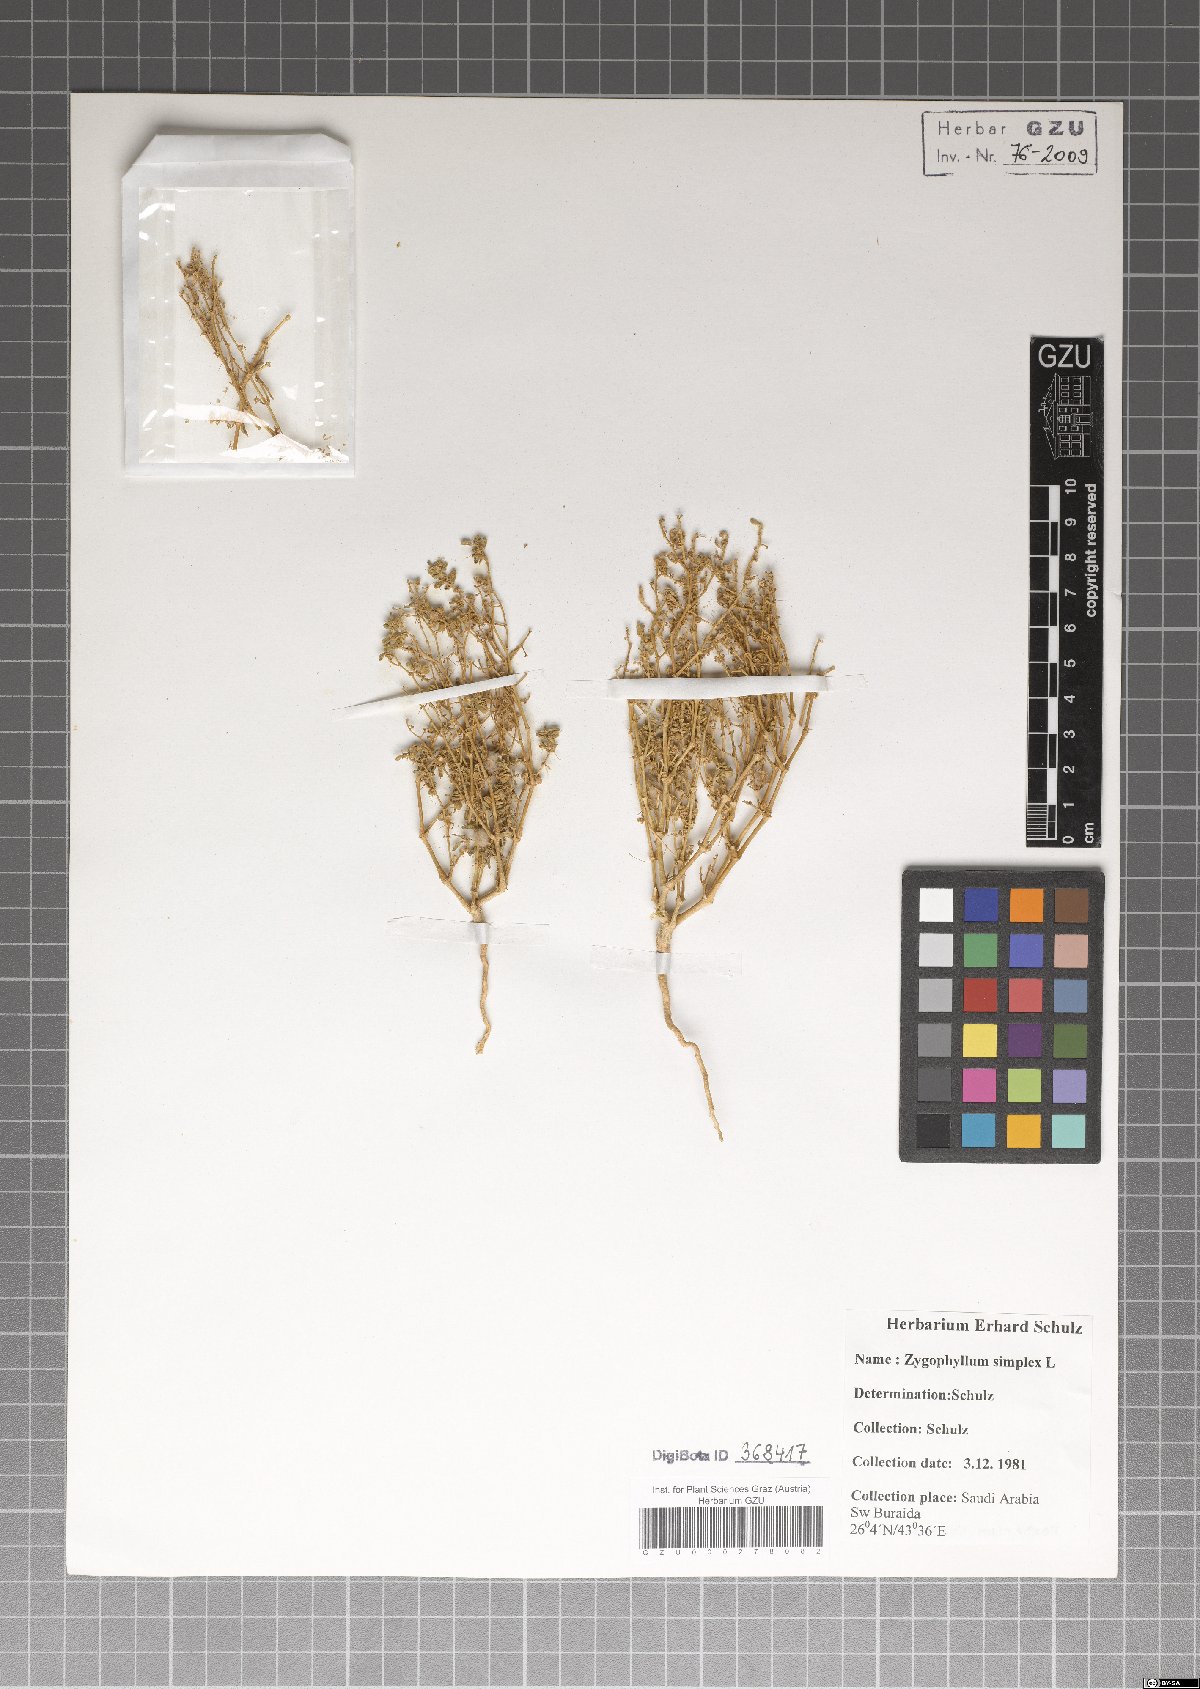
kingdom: Plantae
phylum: Tracheophyta
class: Magnoliopsida
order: Zygophyllales
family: Zygophyllaceae
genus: Tetraena
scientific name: Tetraena simplex
